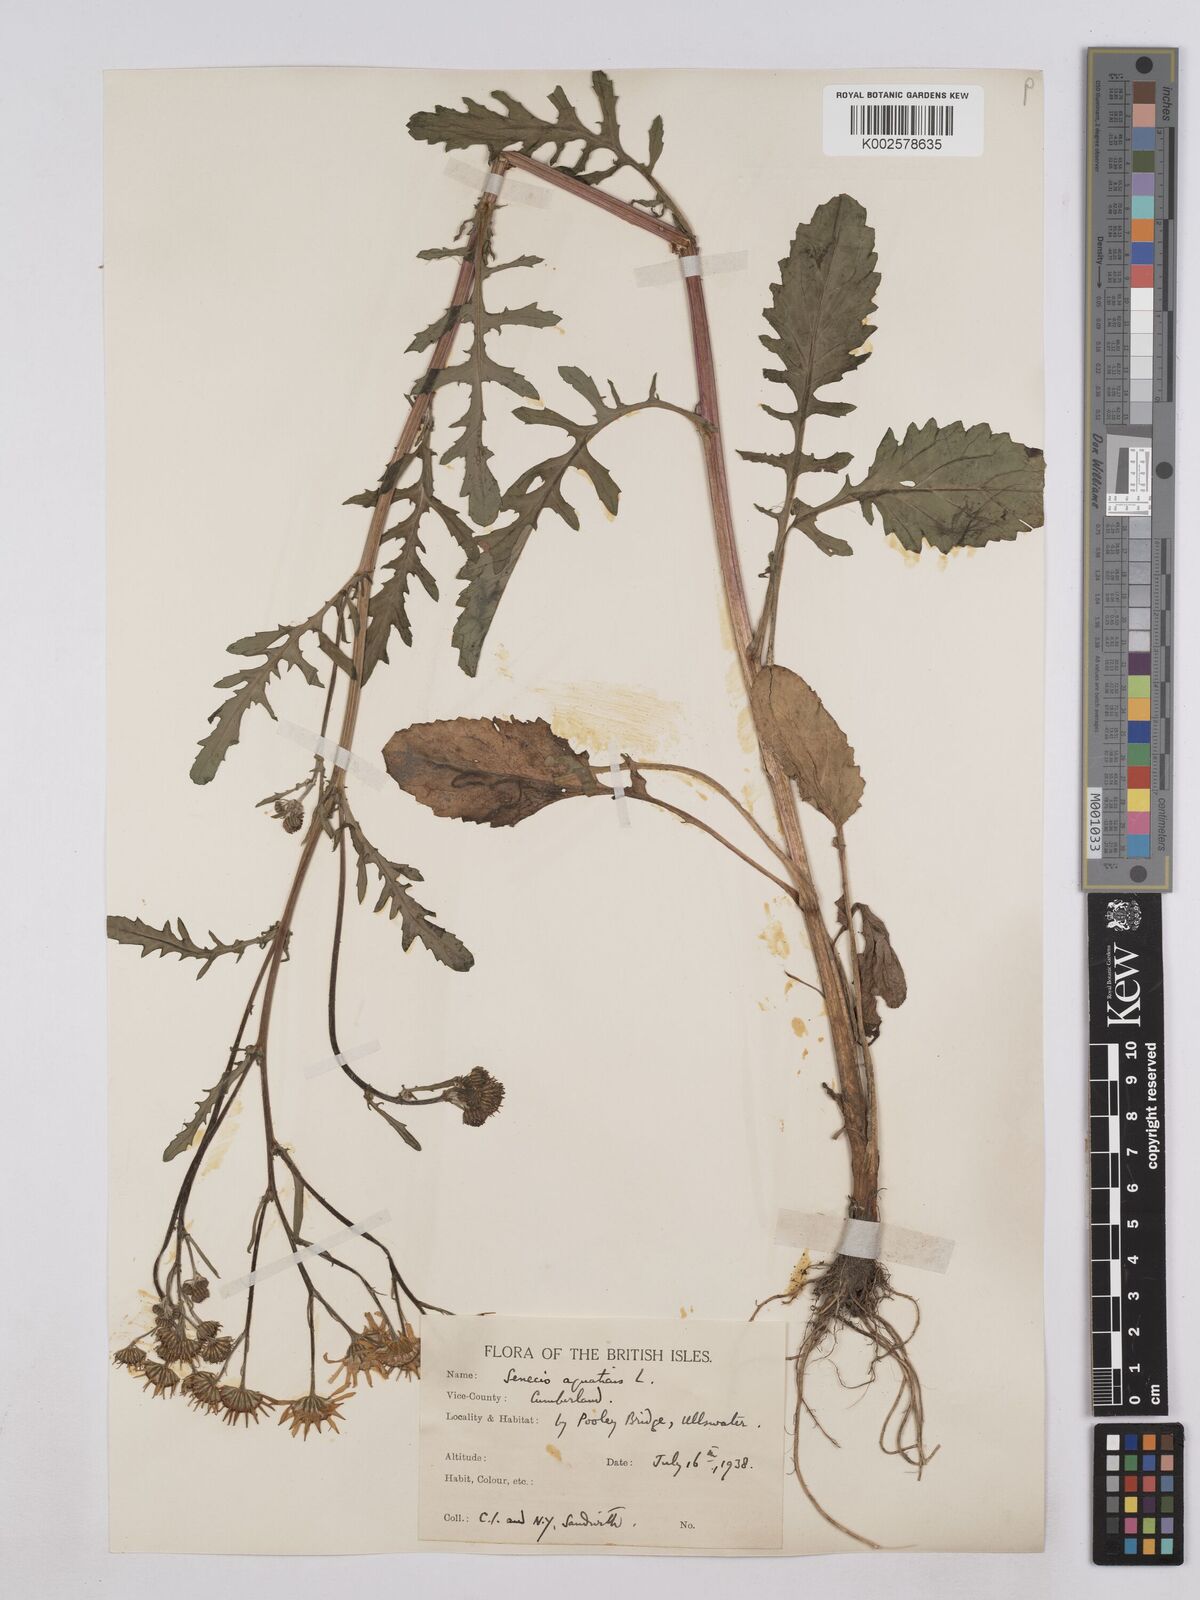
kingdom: Plantae
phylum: Tracheophyta
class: Magnoliopsida
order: Asterales
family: Asteraceae
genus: Jacobaea
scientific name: Jacobaea aquatica
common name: Water ragwort
